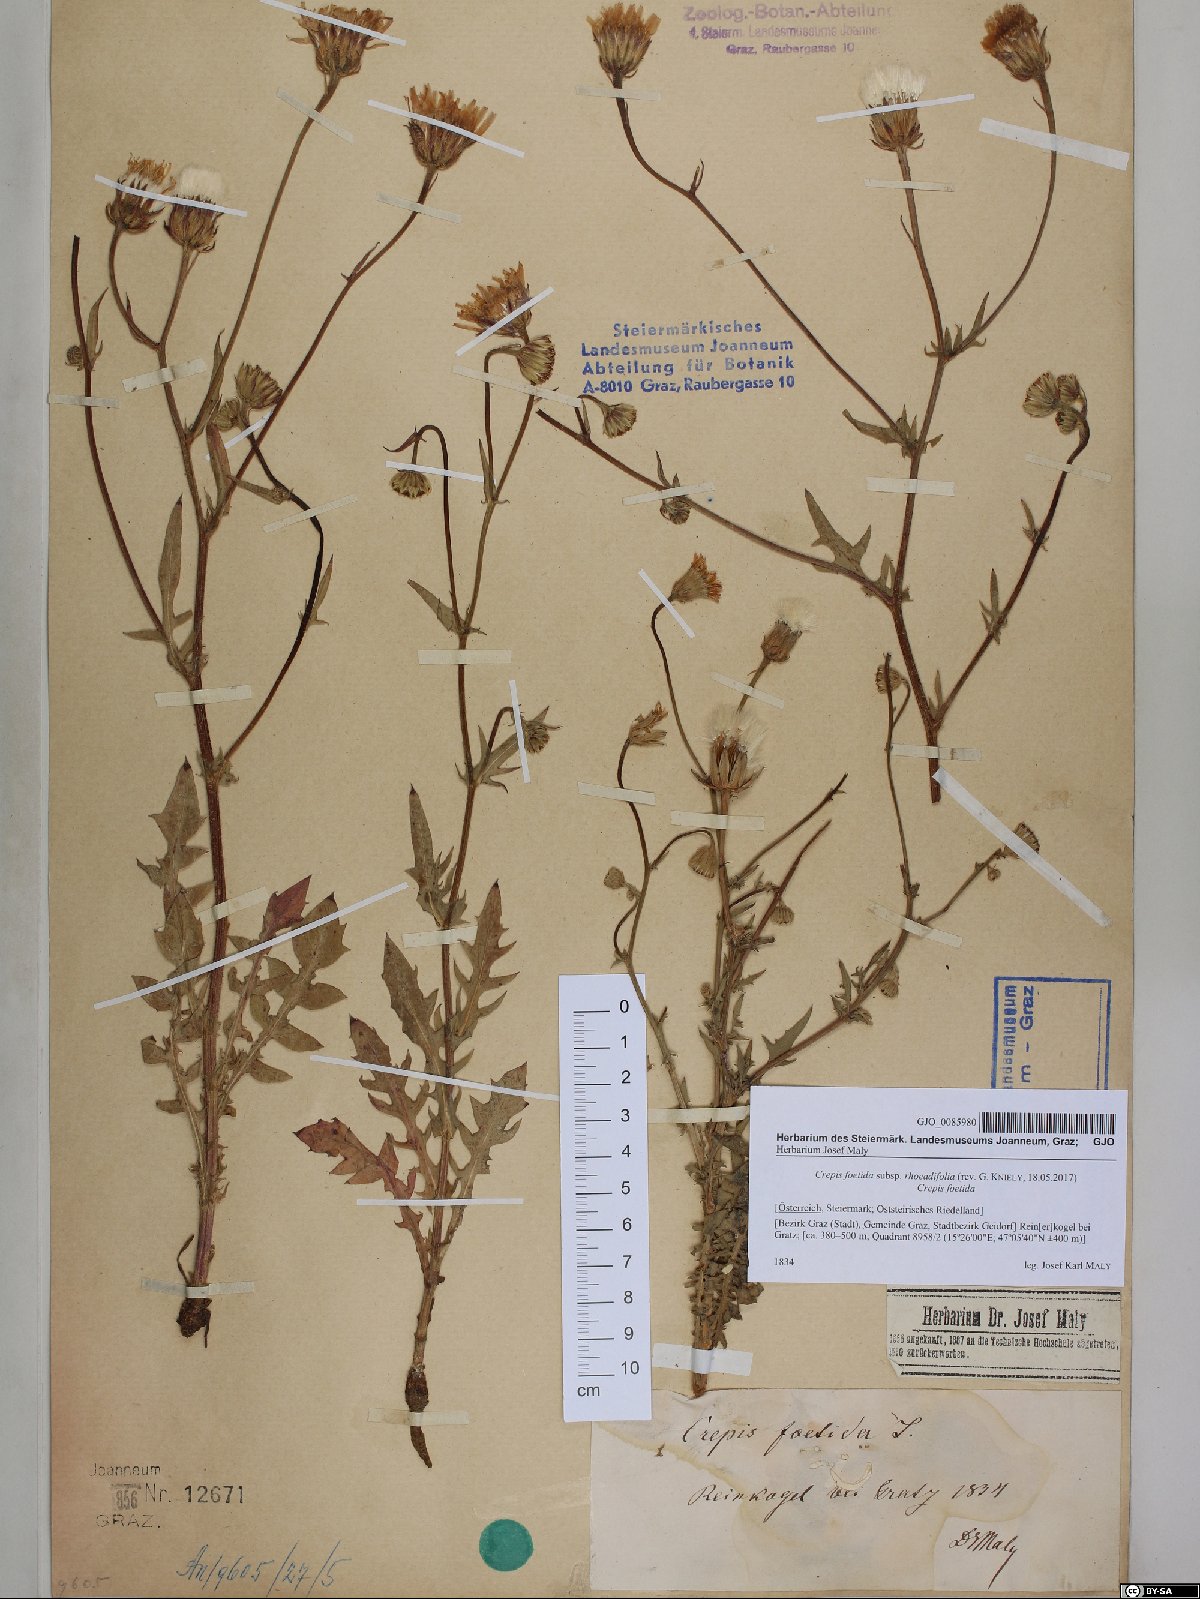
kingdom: Plantae
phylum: Tracheophyta
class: Magnoliopsida
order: Asterales
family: Asteraceae
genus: Crepis
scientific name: Crepis foetida
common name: Stinking hawk's-beard
